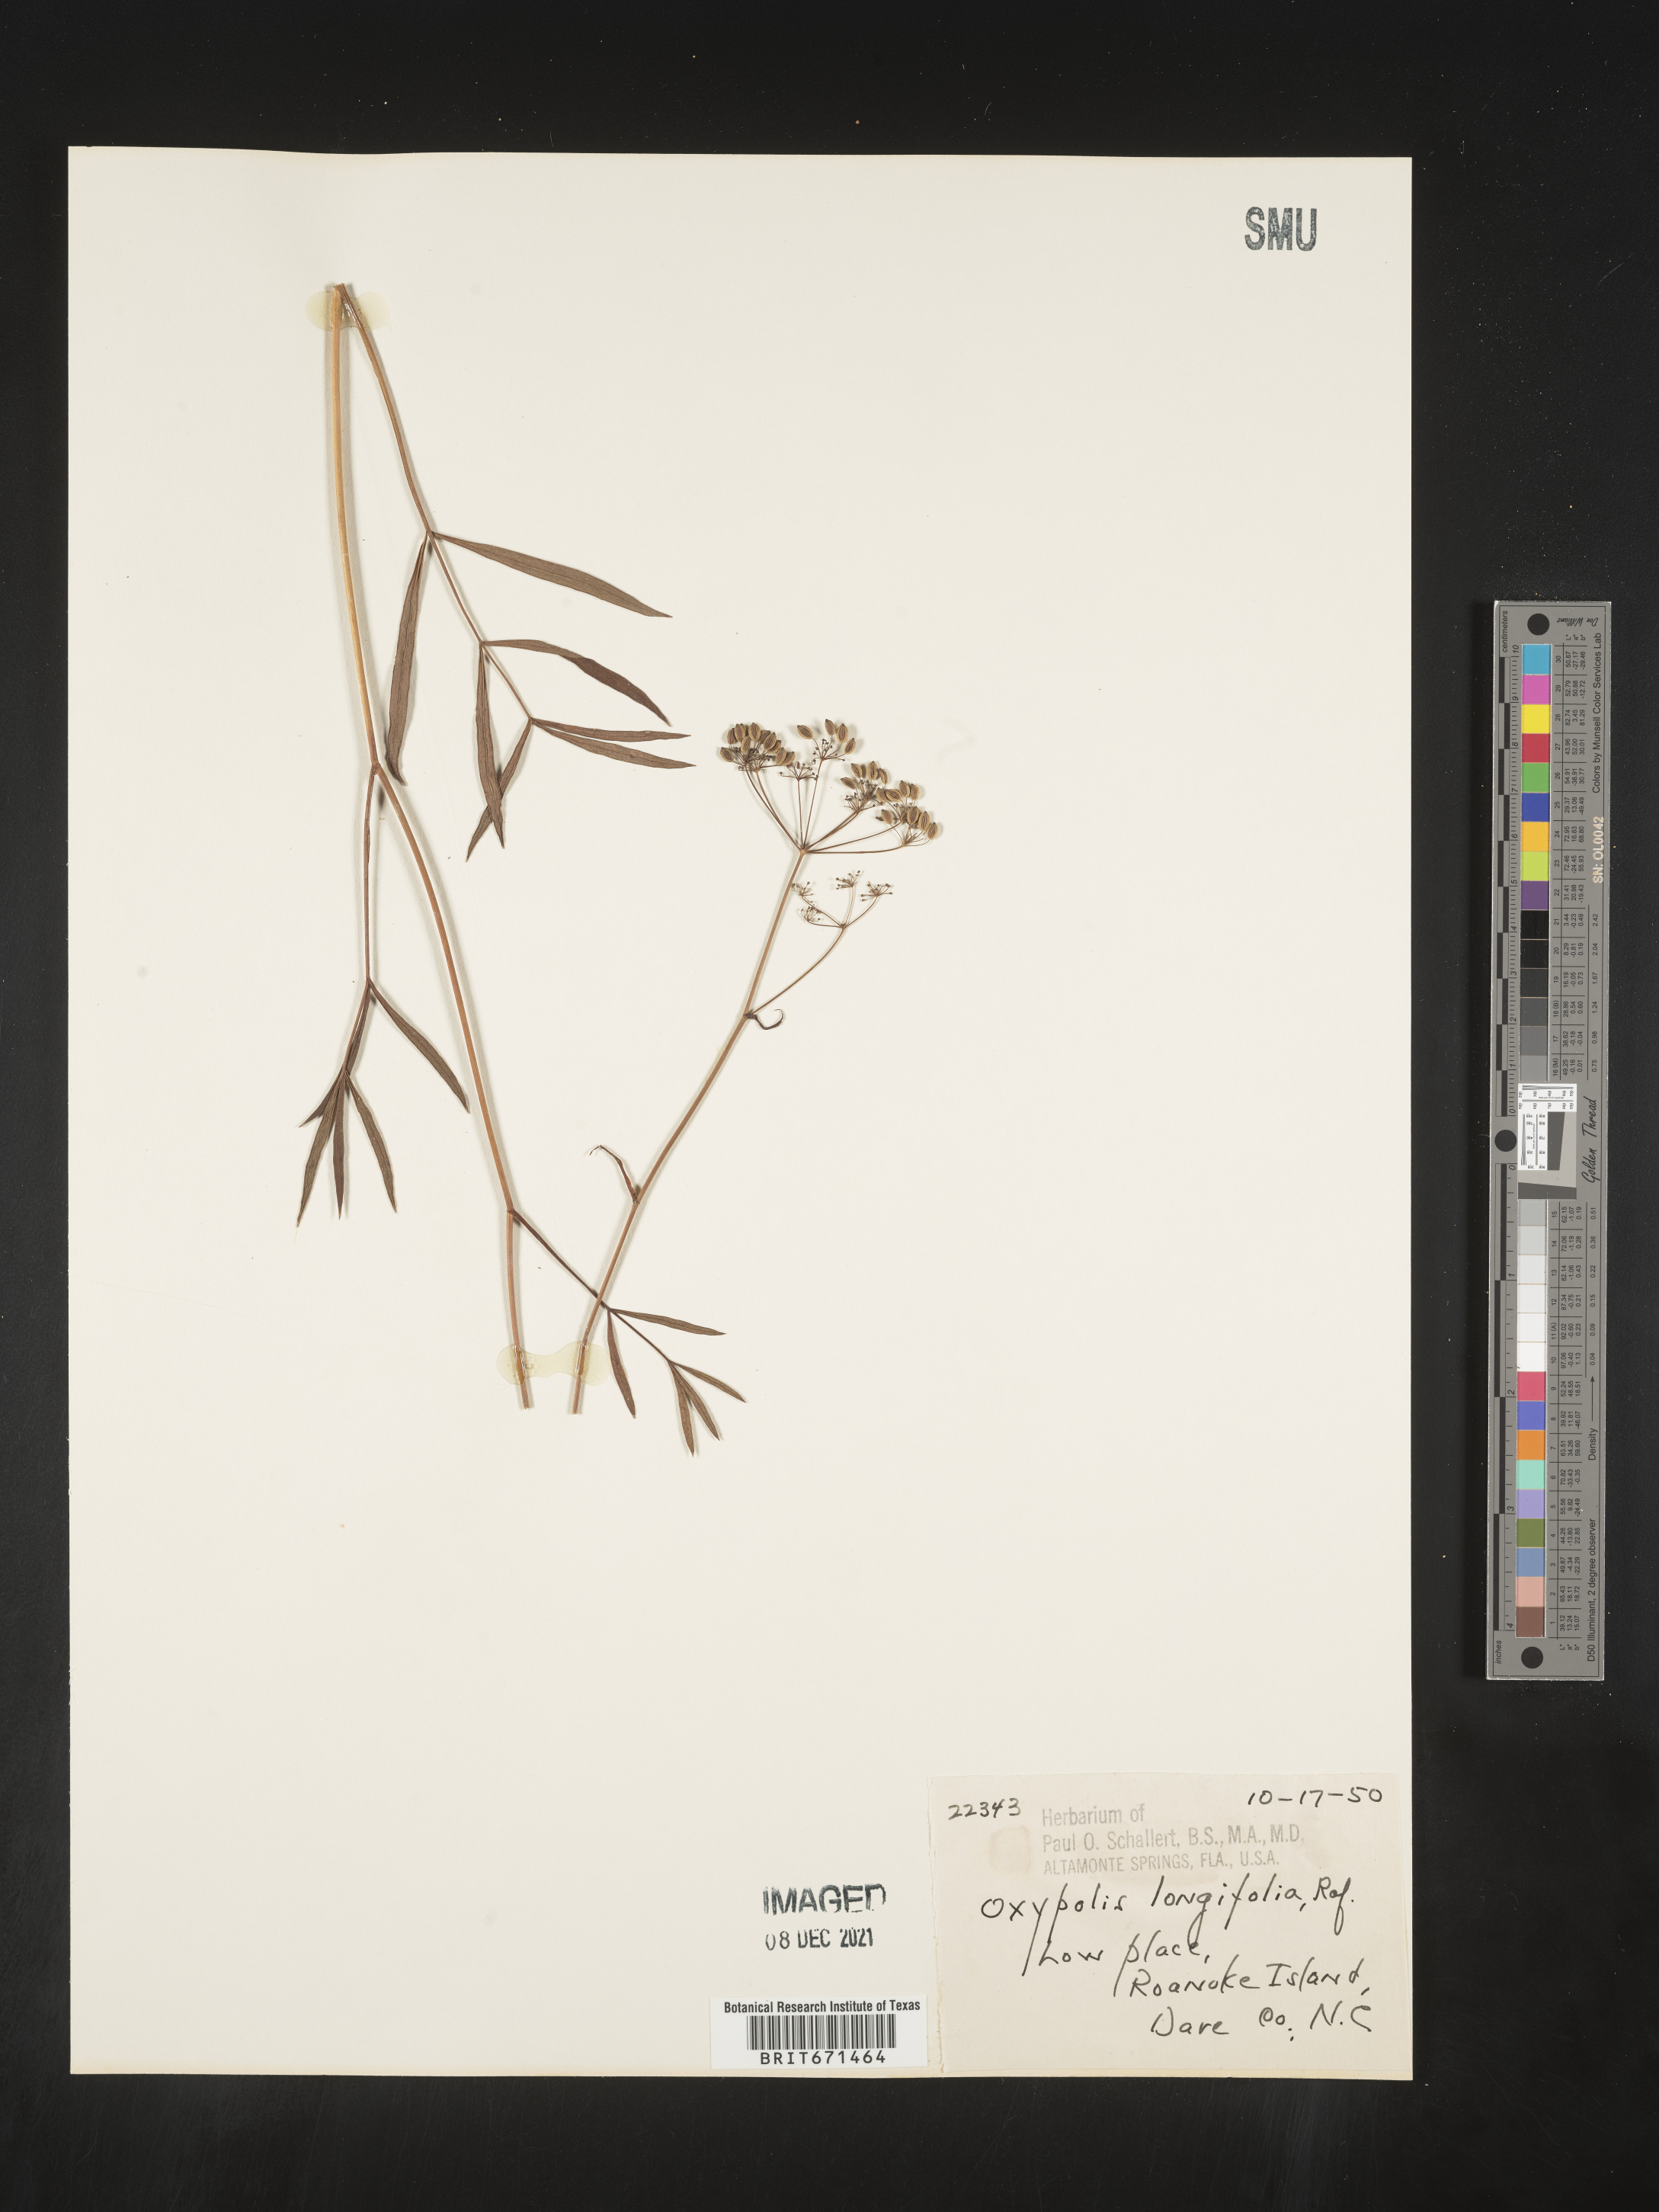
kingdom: Plantae
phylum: Tracheophyta
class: Magnoliopsida
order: Apiales
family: Apiaceae
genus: Oxypolis
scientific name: Oxypolis
